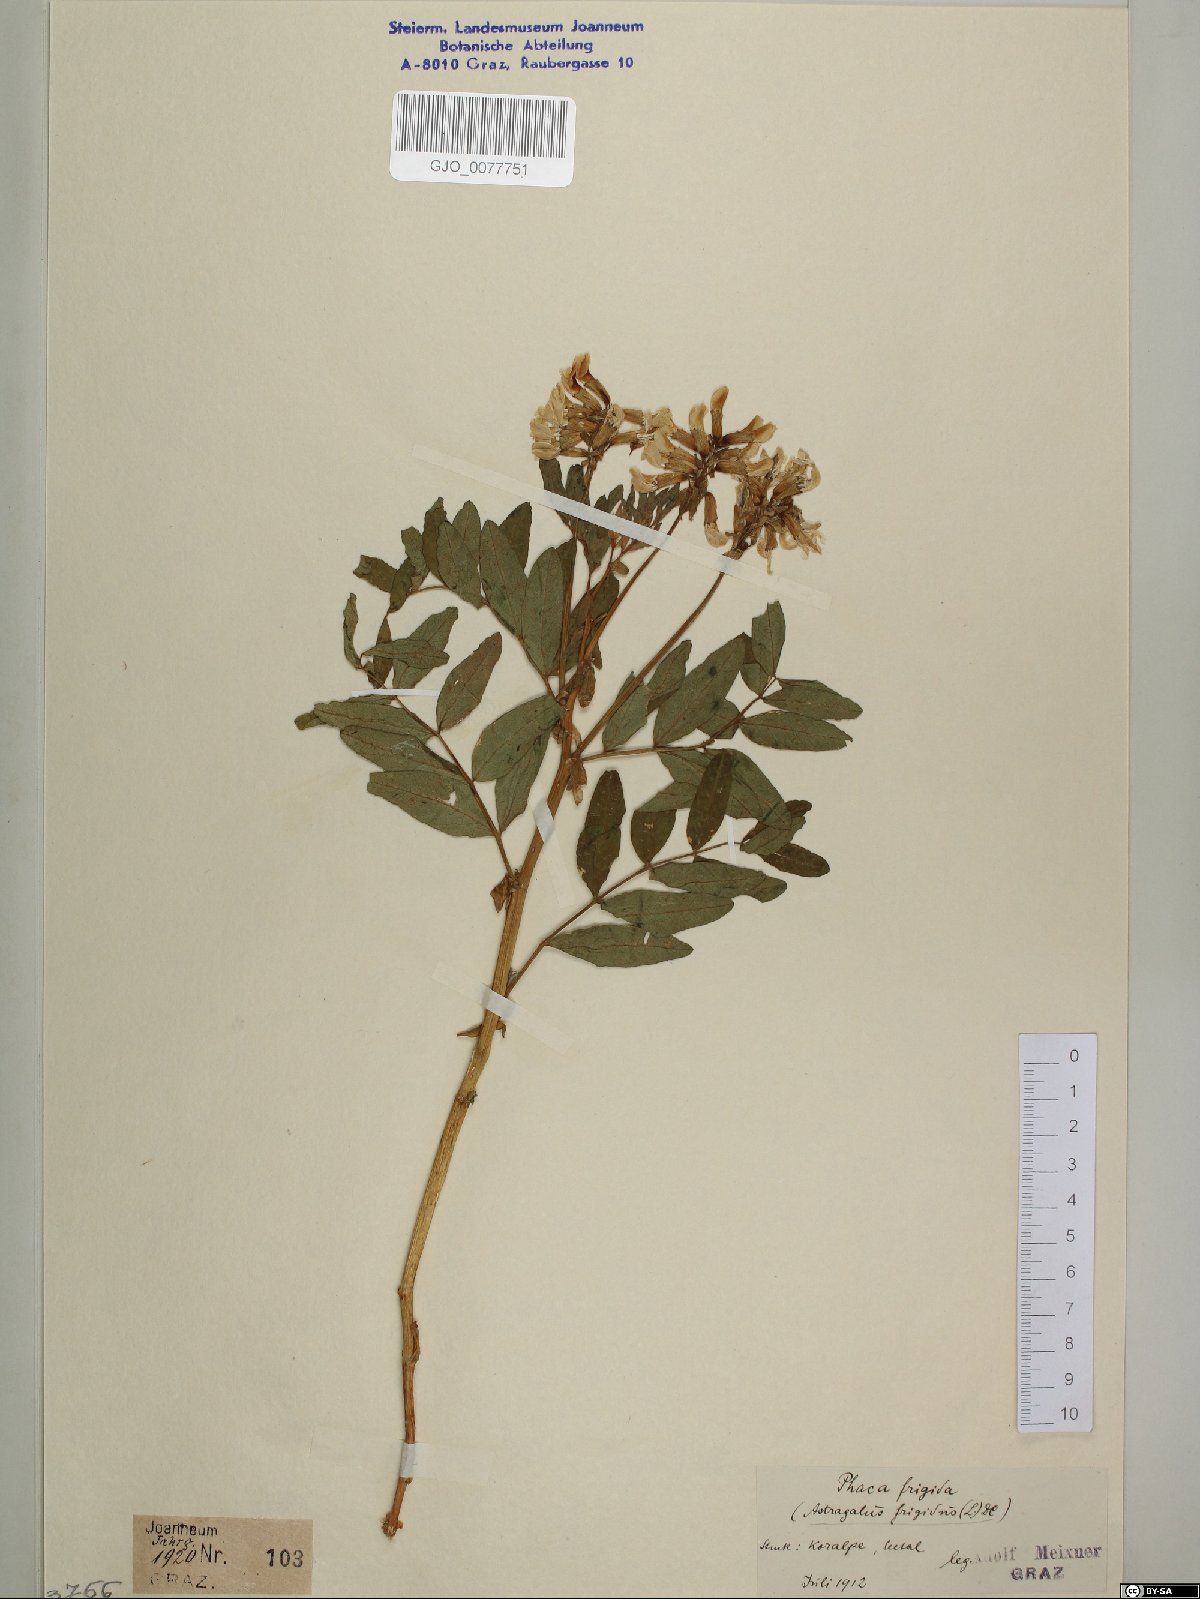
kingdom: Plantae
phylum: Tracheophyta
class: Magnoliopsida
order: Fabales
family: Fabaceae
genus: Astragalus
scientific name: Astragalus frigidus
